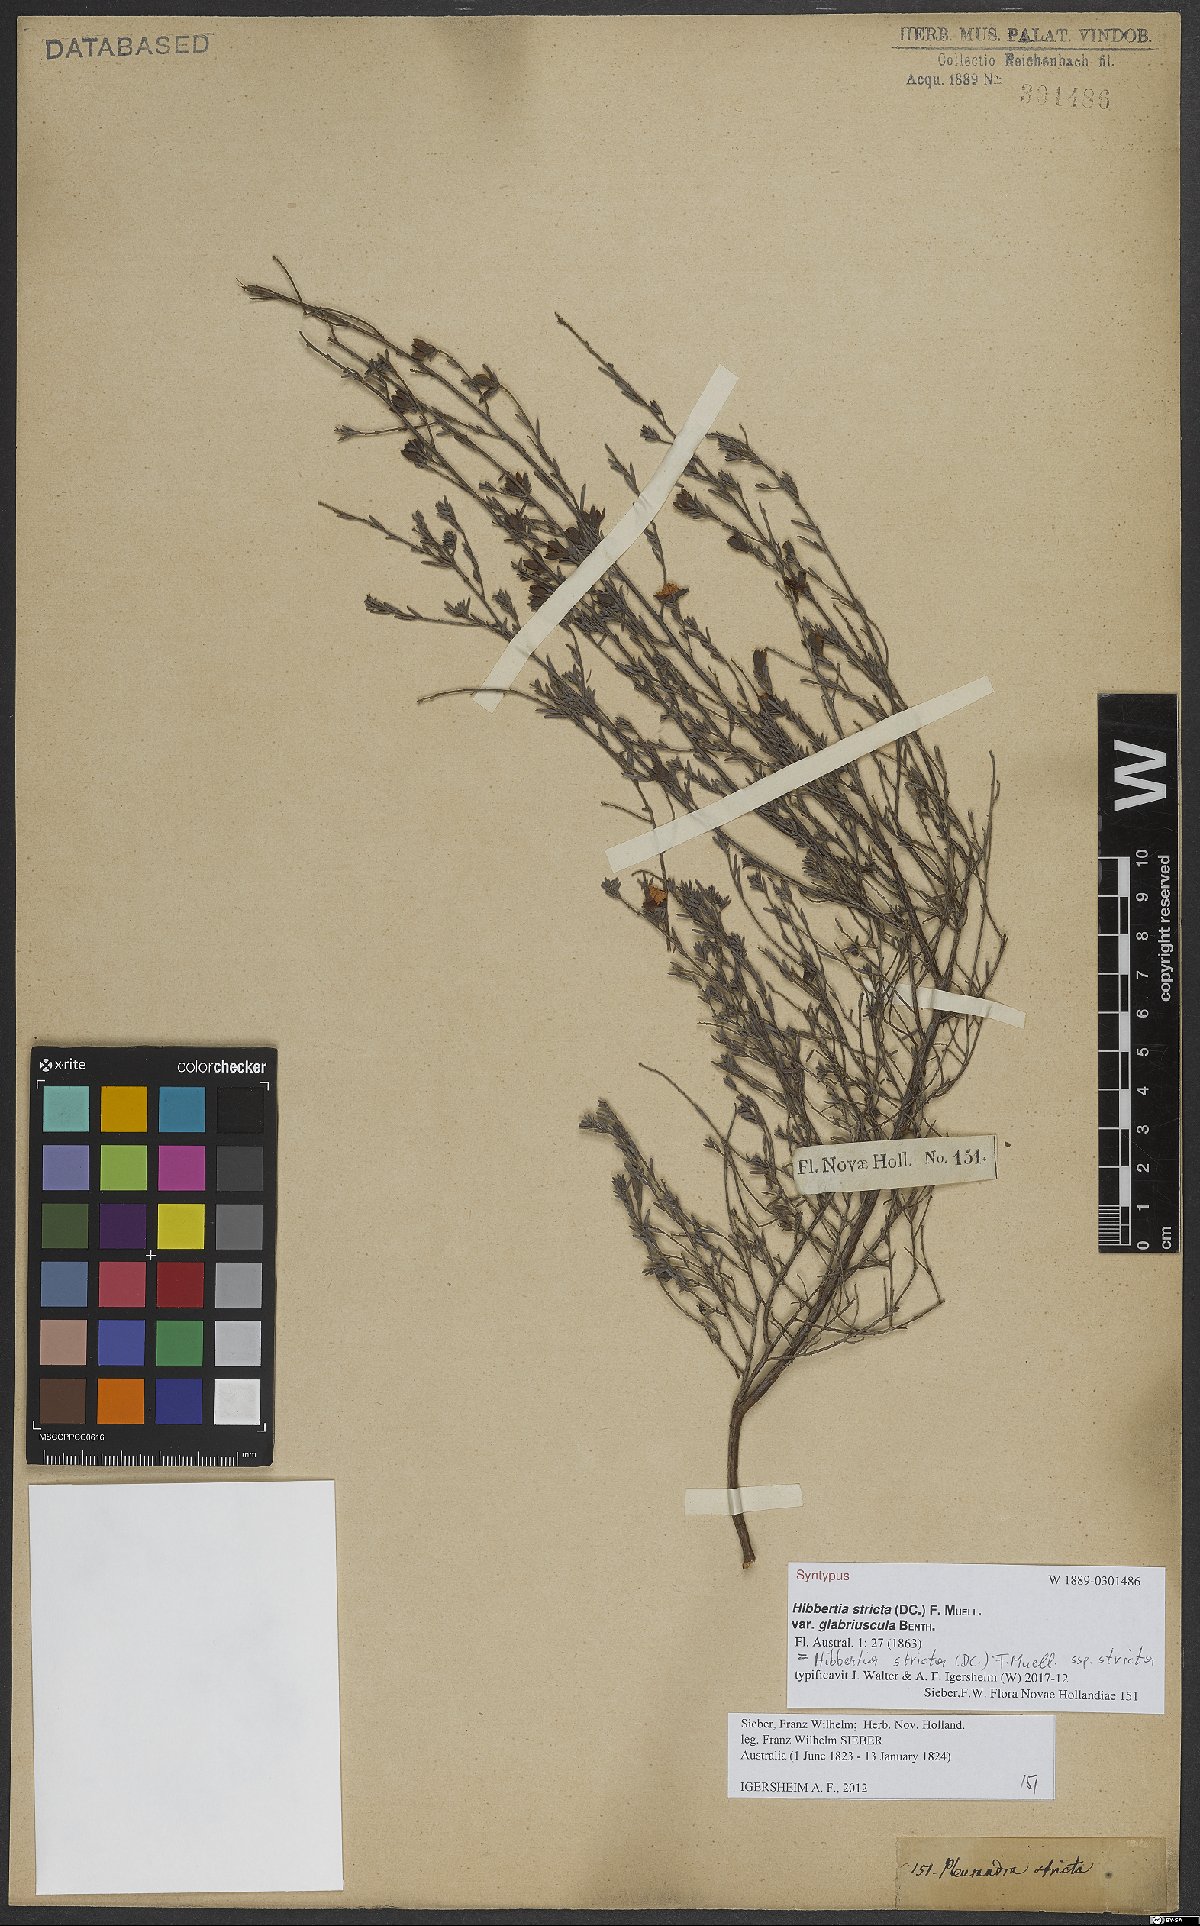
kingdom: Plantae
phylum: Tracheophyta
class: Magnoliopsida
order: Dilleniales
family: Dilleniaceae
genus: Hibbertia
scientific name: Hibbertia stricta
